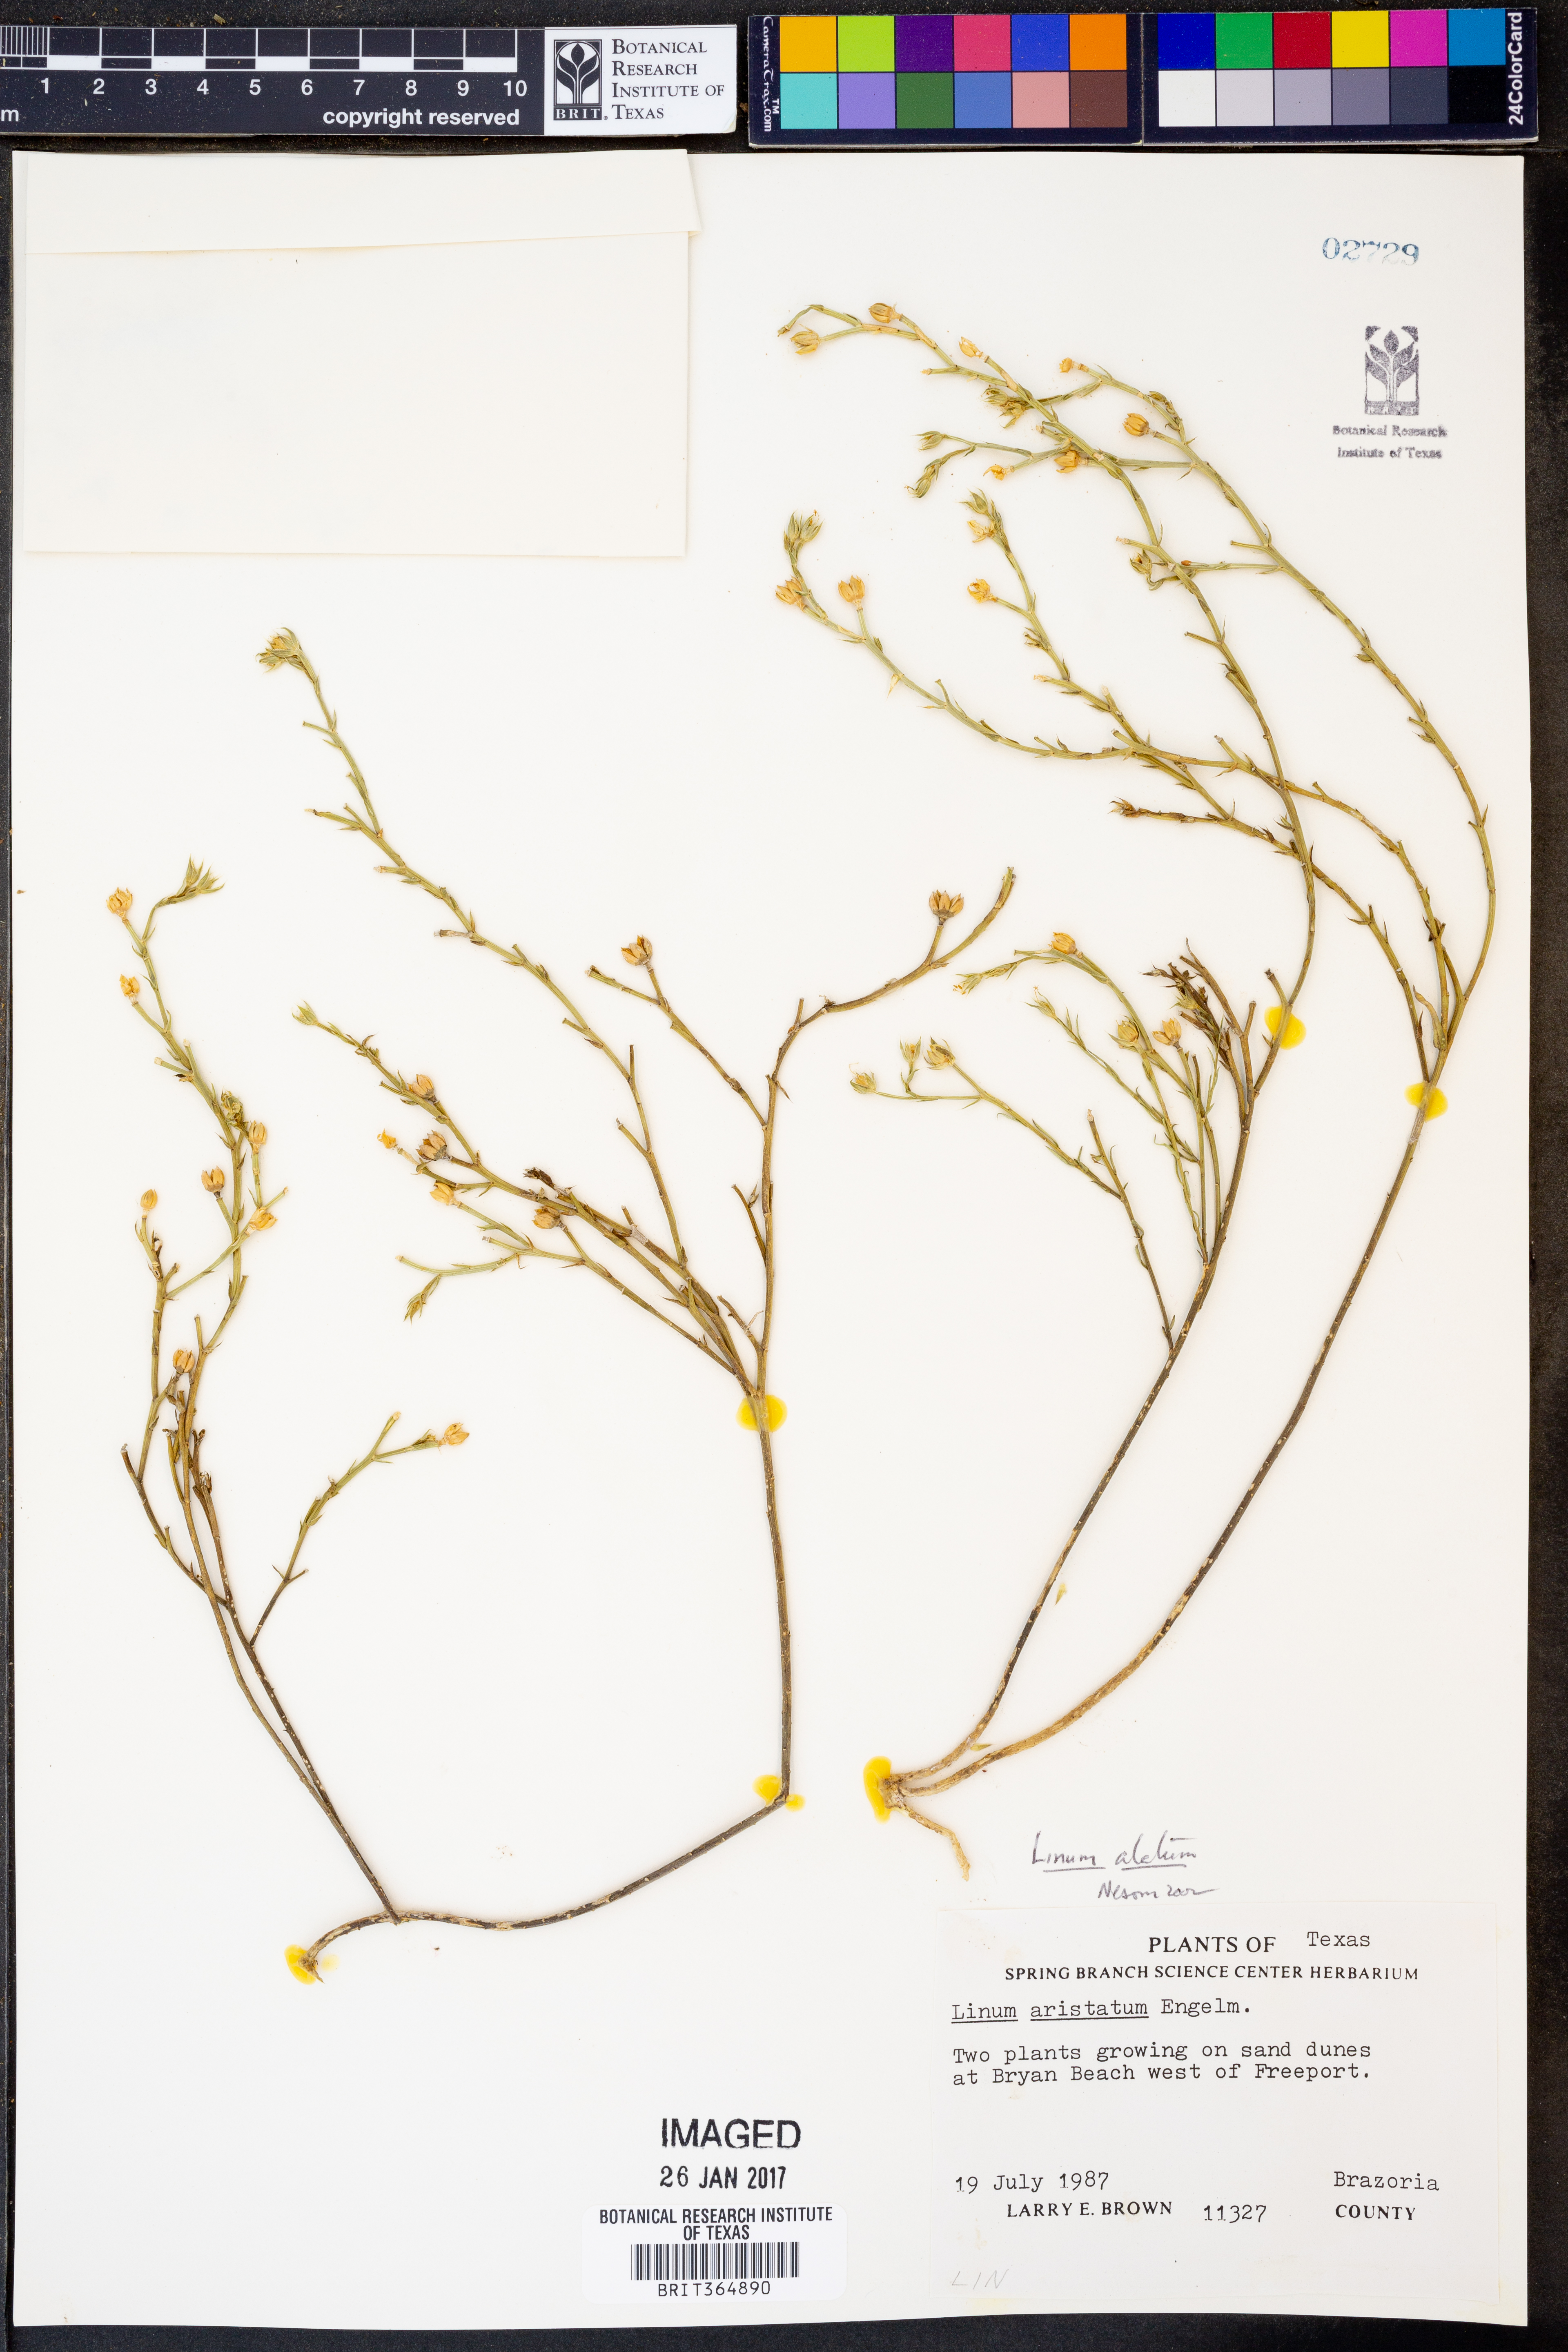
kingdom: Plantae
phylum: Tracheophyta
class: Magnoliopsida
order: Malpighiales
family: Linaceae
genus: Linum
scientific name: Linum alatum
